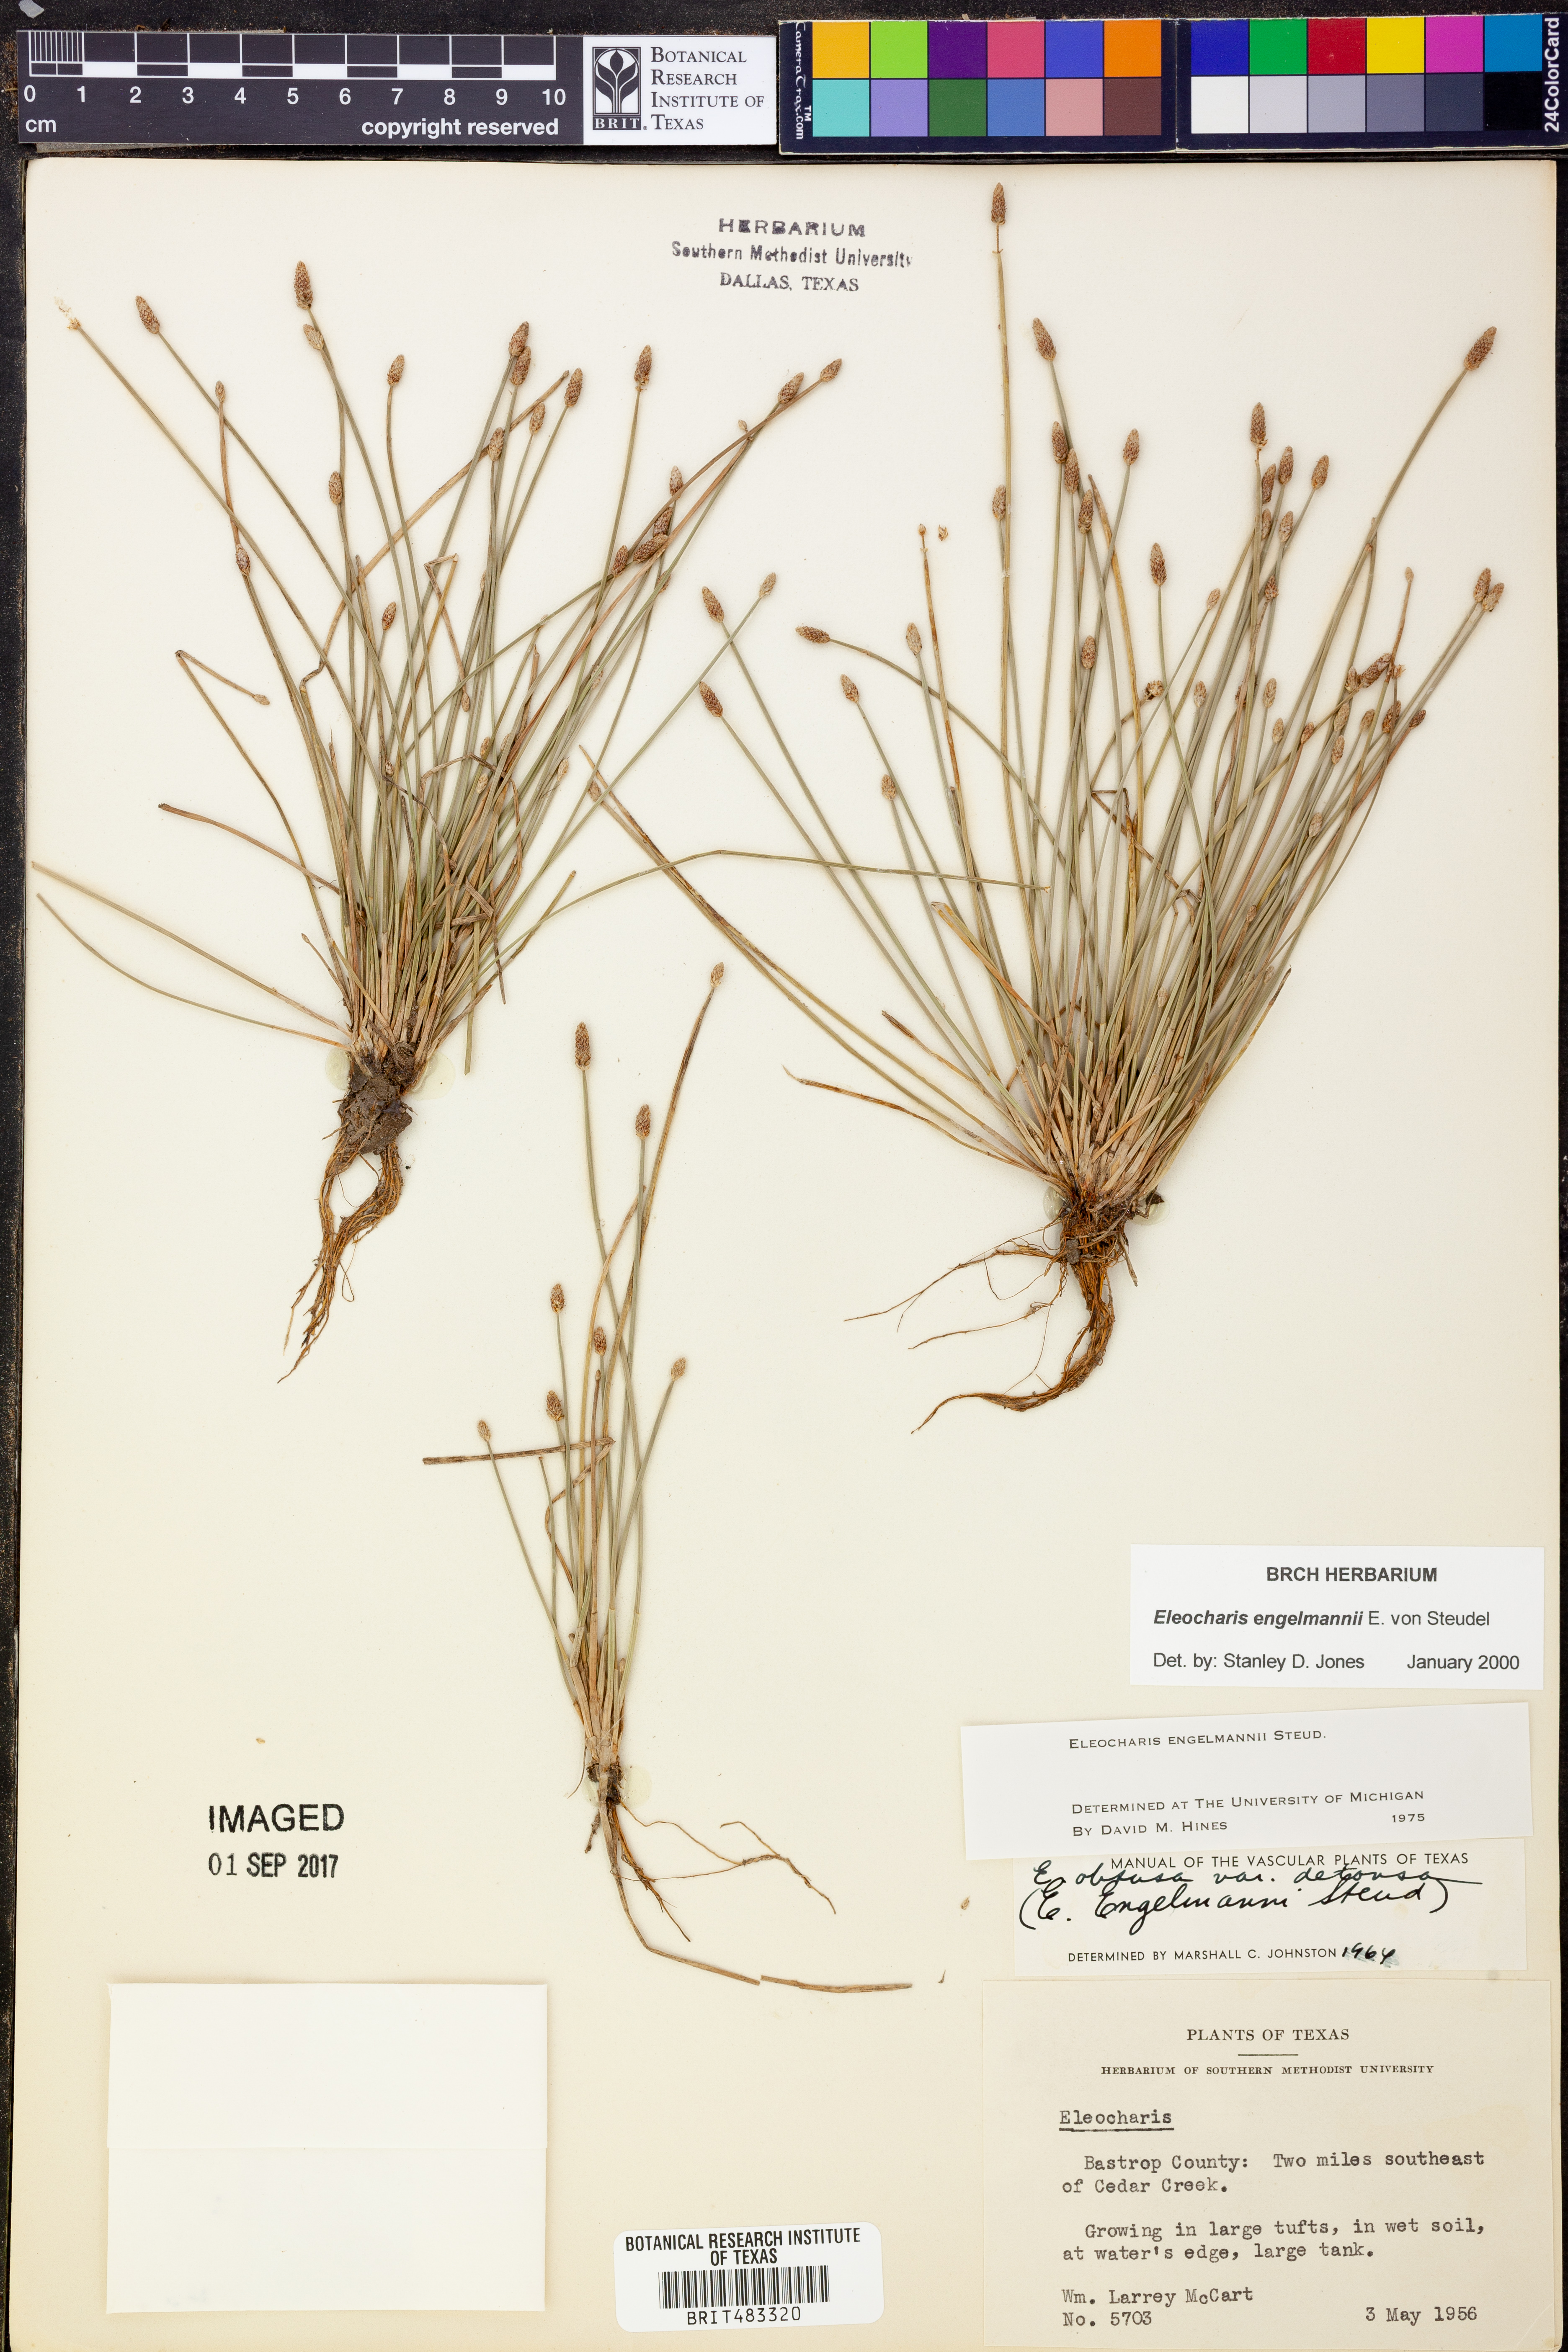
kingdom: Plantae
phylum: Tracheophyta
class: Liliopsida
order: Poales
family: Cyperaceae
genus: Eleocharis
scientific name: Eleocharis engelmannii
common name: Engelmann's spikerush
